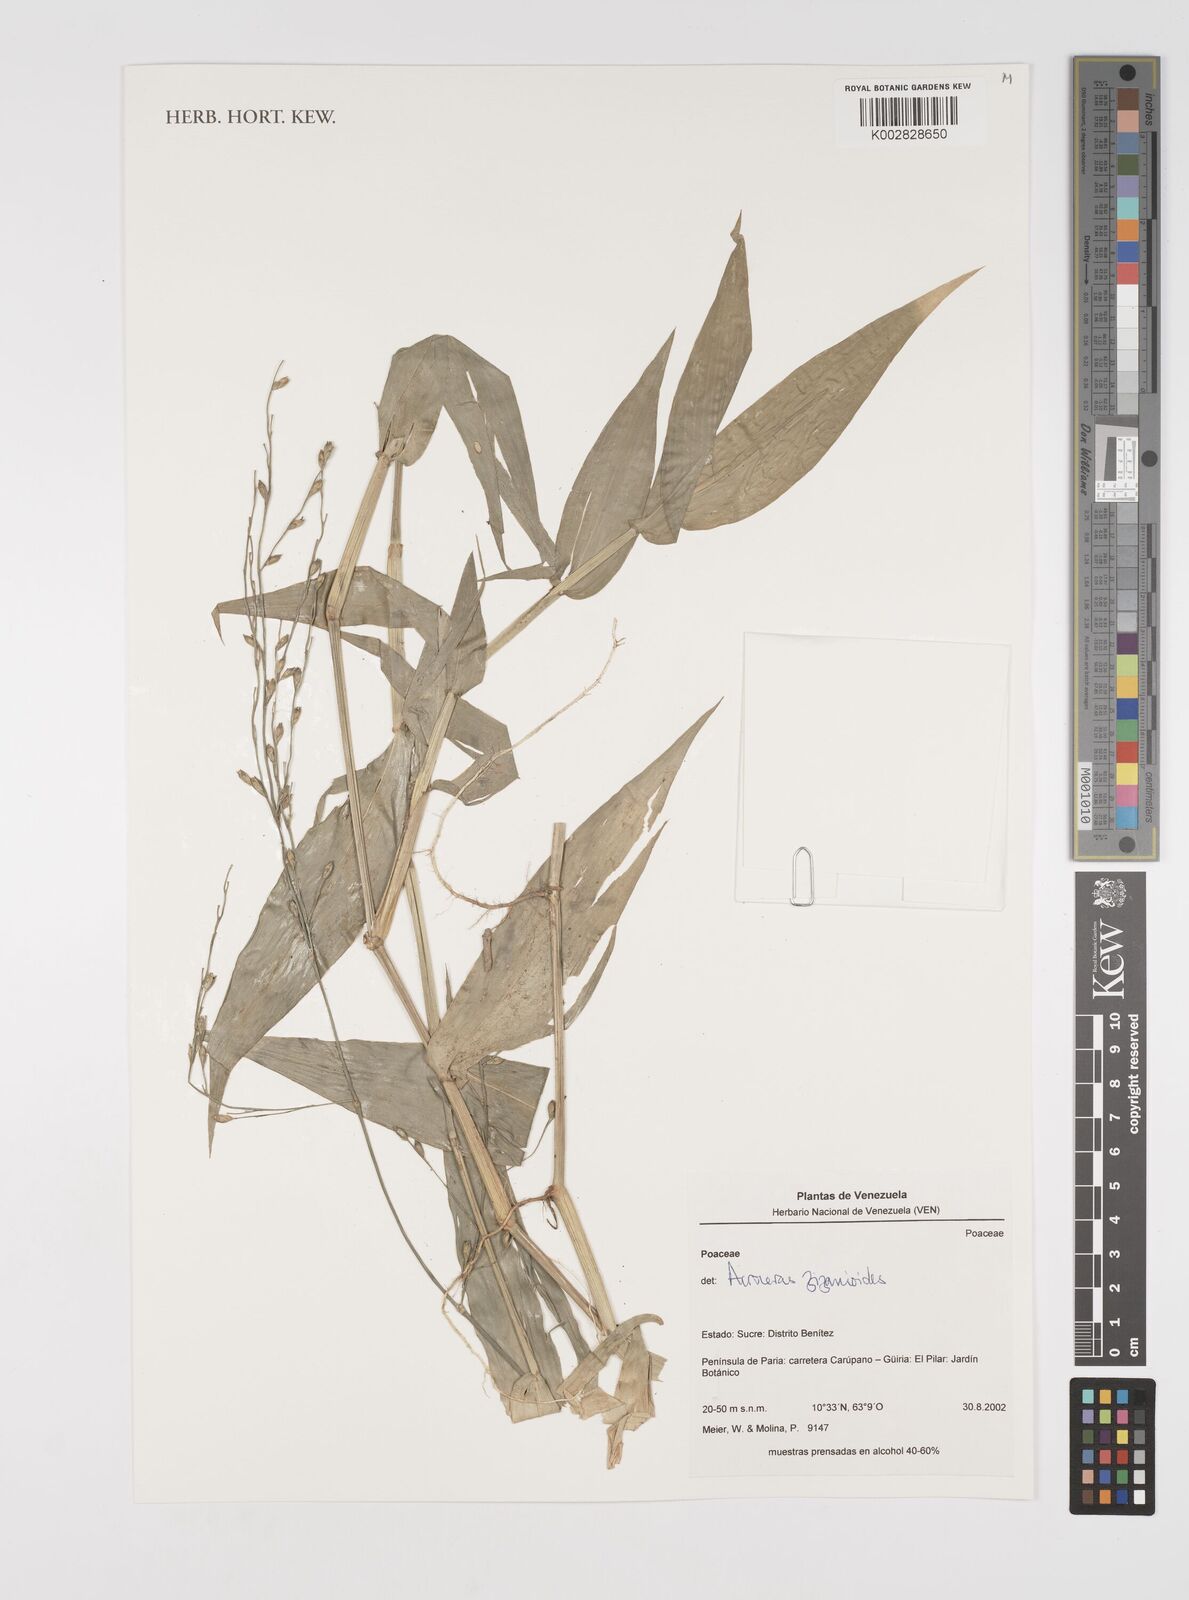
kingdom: Plantae
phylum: Tracheophyta
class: Liliopsida
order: Poales
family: Poaceae
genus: Acroceras
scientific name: Acroceras zizanioides
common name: Oat grass
